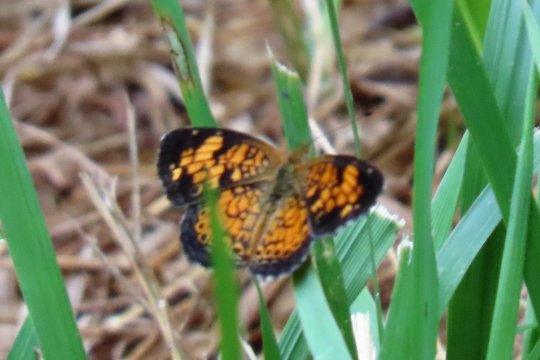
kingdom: Animalia
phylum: Arthropoda
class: Insecta
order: Lepidoptera
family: Nymphalidae
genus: Phyciodes
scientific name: Phyciodes tharos
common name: Pearl Crescent
